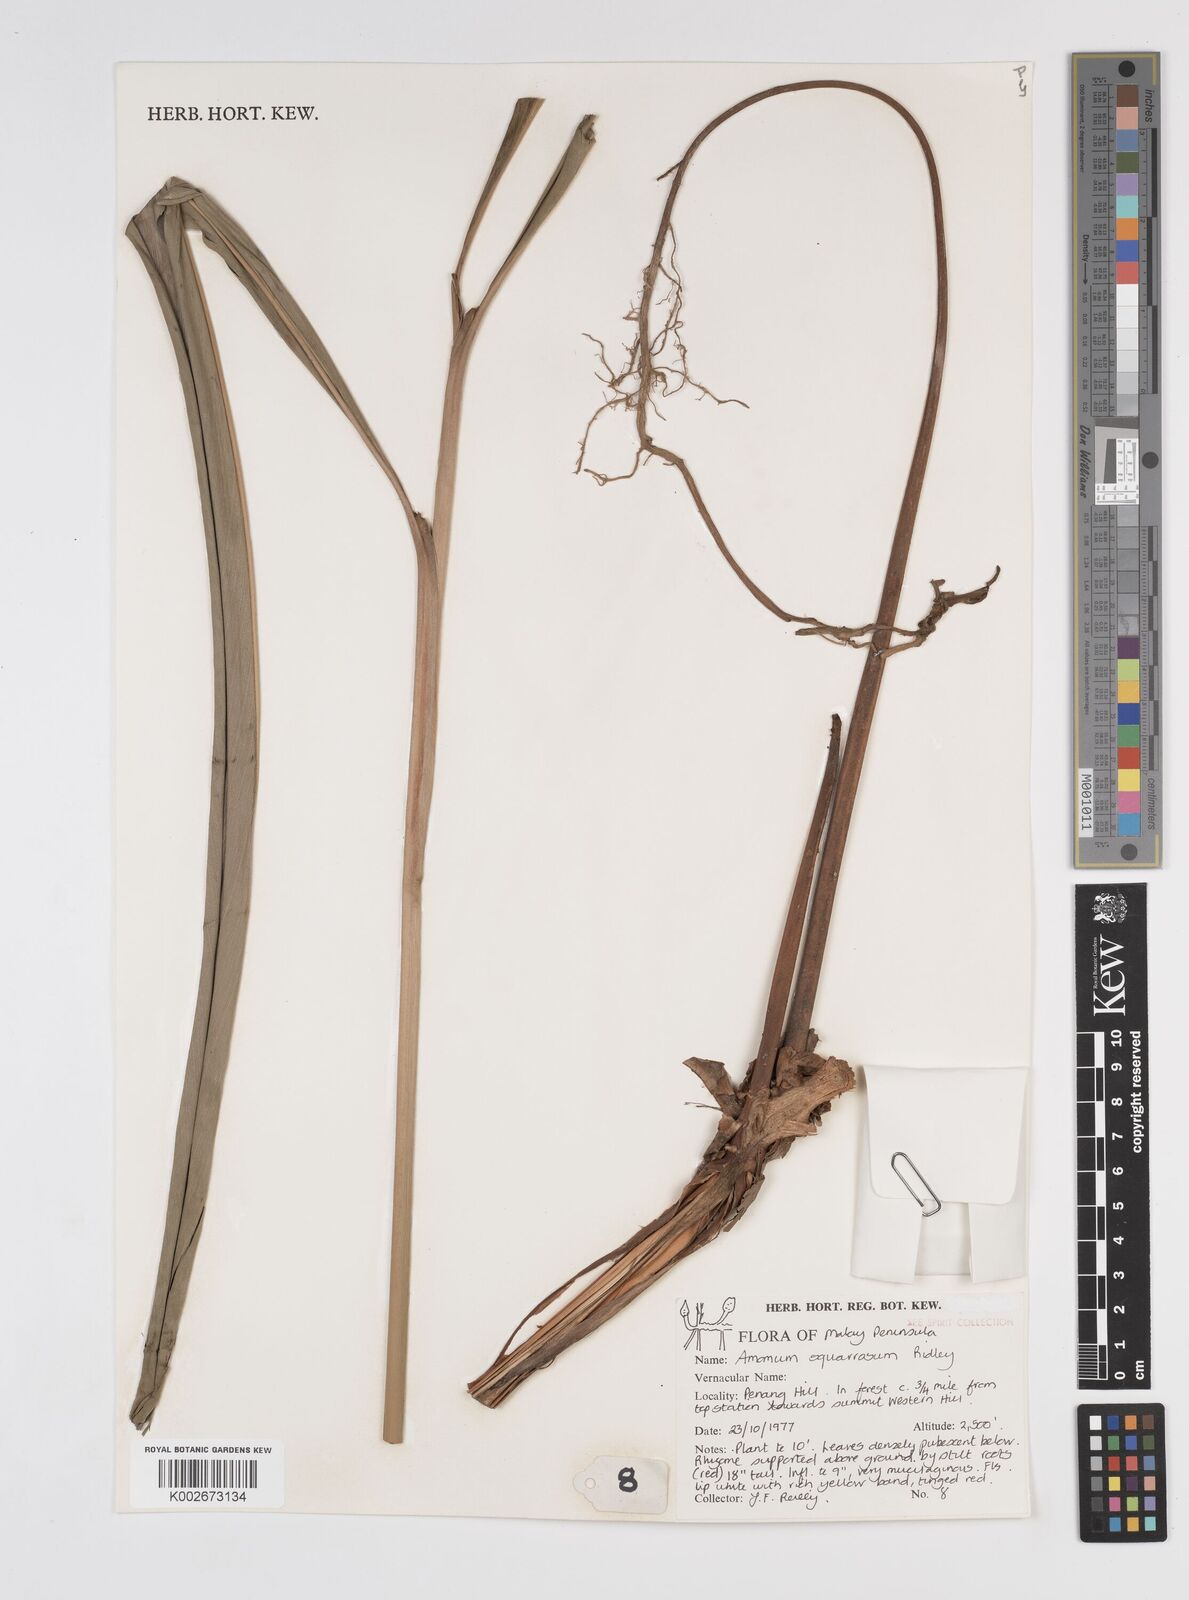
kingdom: Plantae
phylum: Tracheophyta
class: Liliopsida
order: Zingiberales
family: Zingiberaceae
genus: Conamomum
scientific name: Conamomum squarrosum
